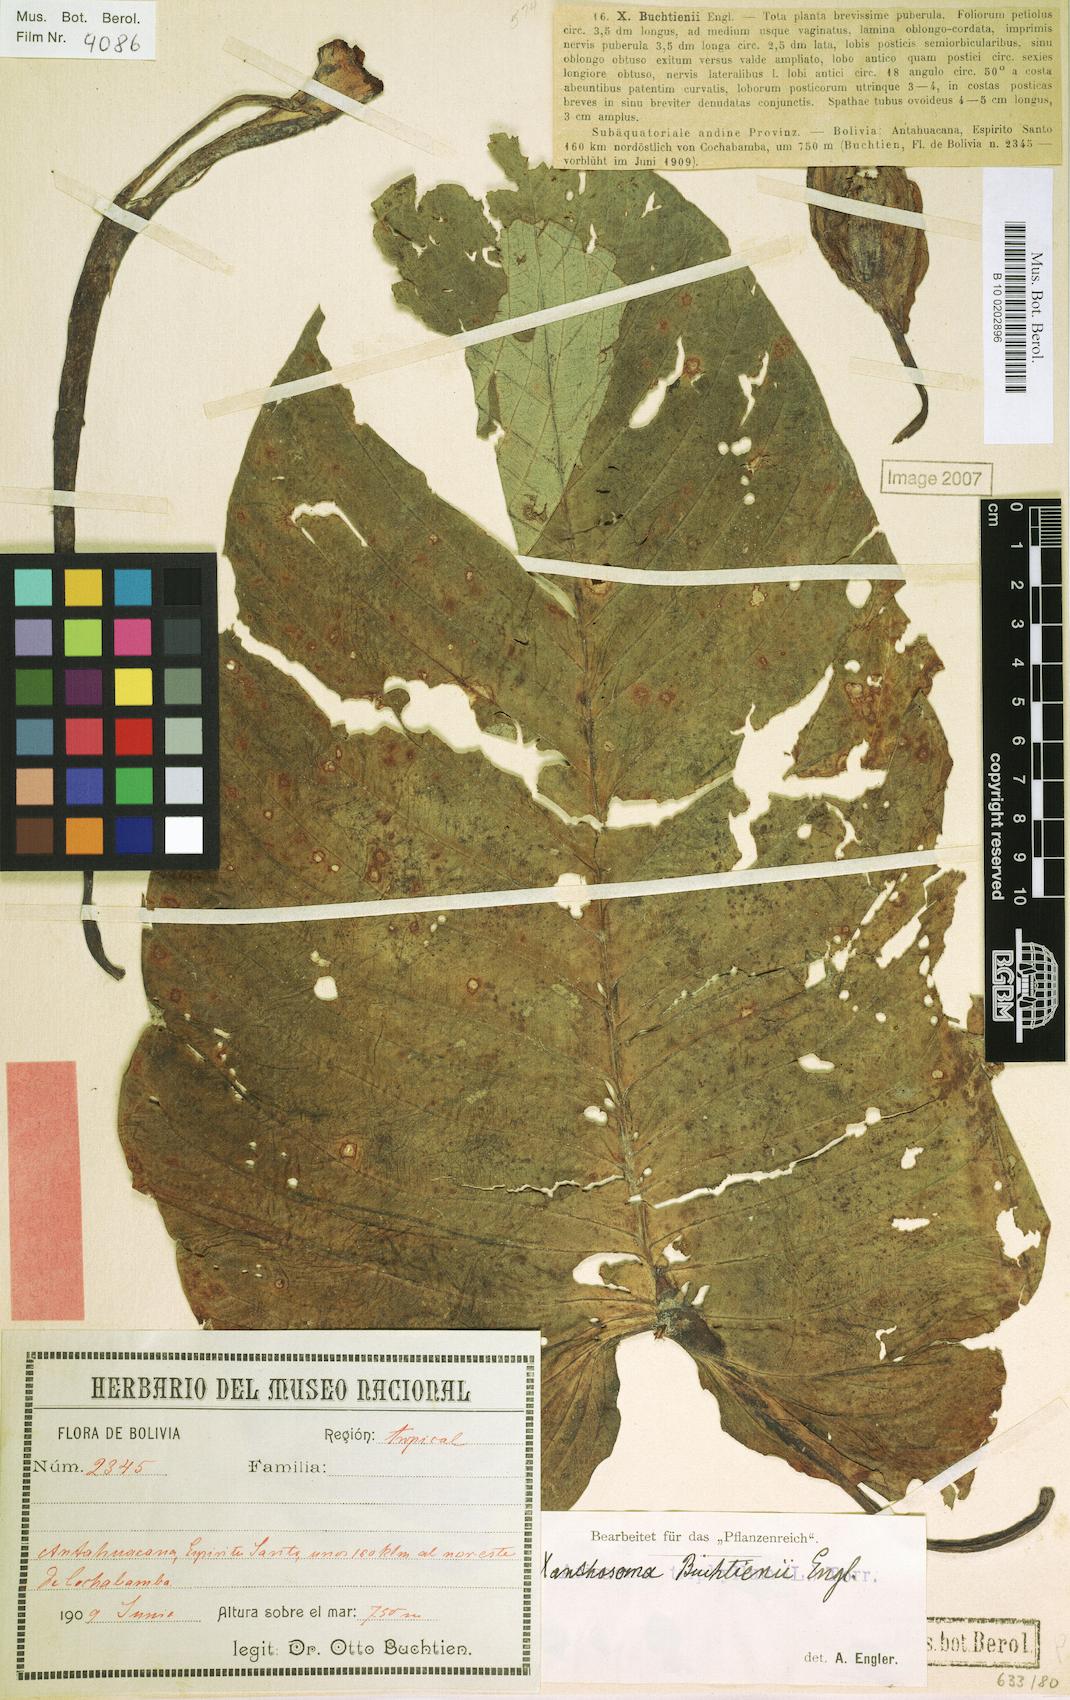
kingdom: Plantae
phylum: Tracheophyta
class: Liliopsida
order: Alismatales
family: Araceae
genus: Xanthosoma
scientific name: Xanthosoma pubescens
